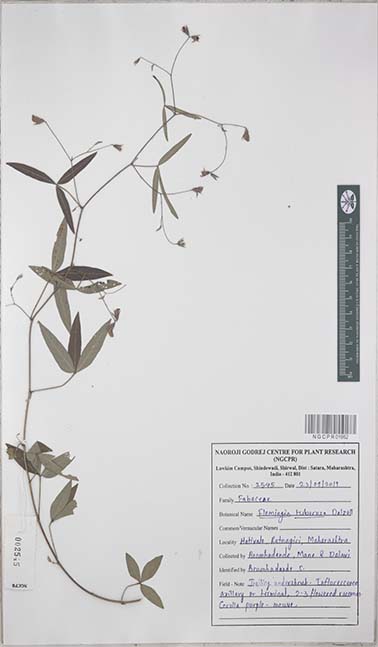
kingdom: Plantae
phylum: Tracheophyta
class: Magnoliopsida
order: Fabales
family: Fabaceae
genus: Flemingia
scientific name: Flemingia tuberosa
